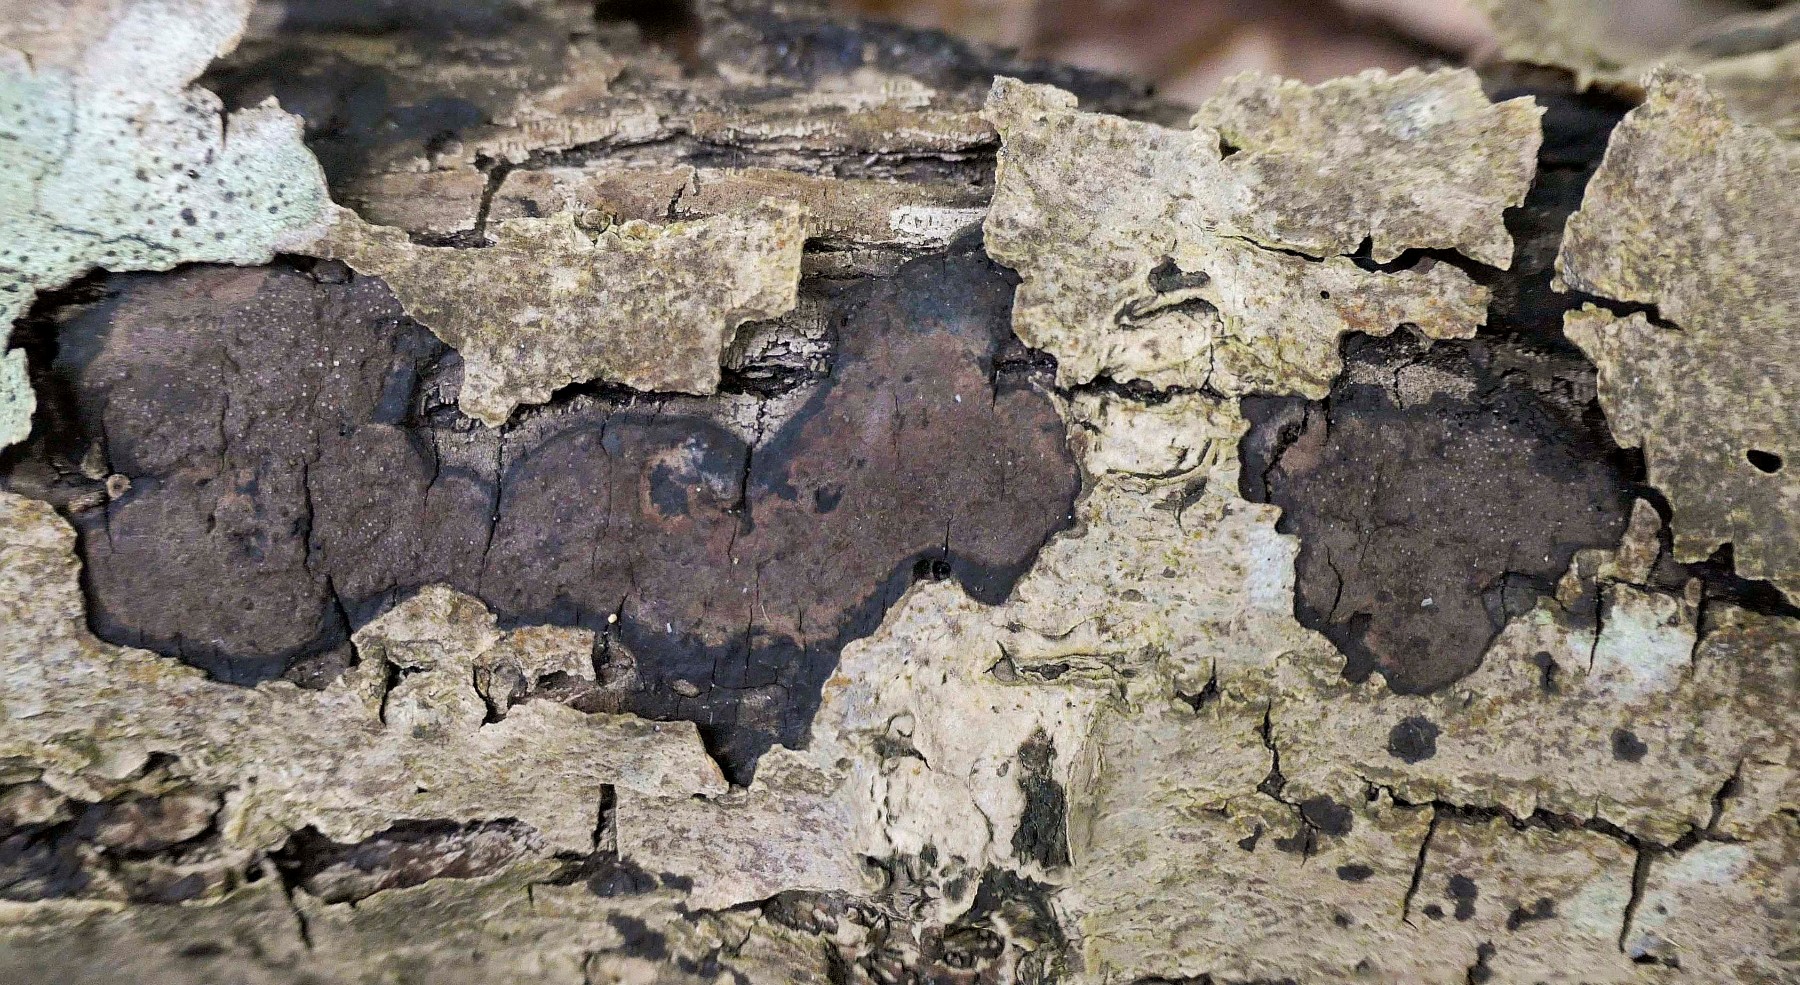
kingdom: Fungi
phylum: Ascomycota
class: Sordariomycetes
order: Xylariales
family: Hypoxylaceae
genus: Hypoxylon
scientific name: Hypoxylon petriniae
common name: nedsænket kulbær
